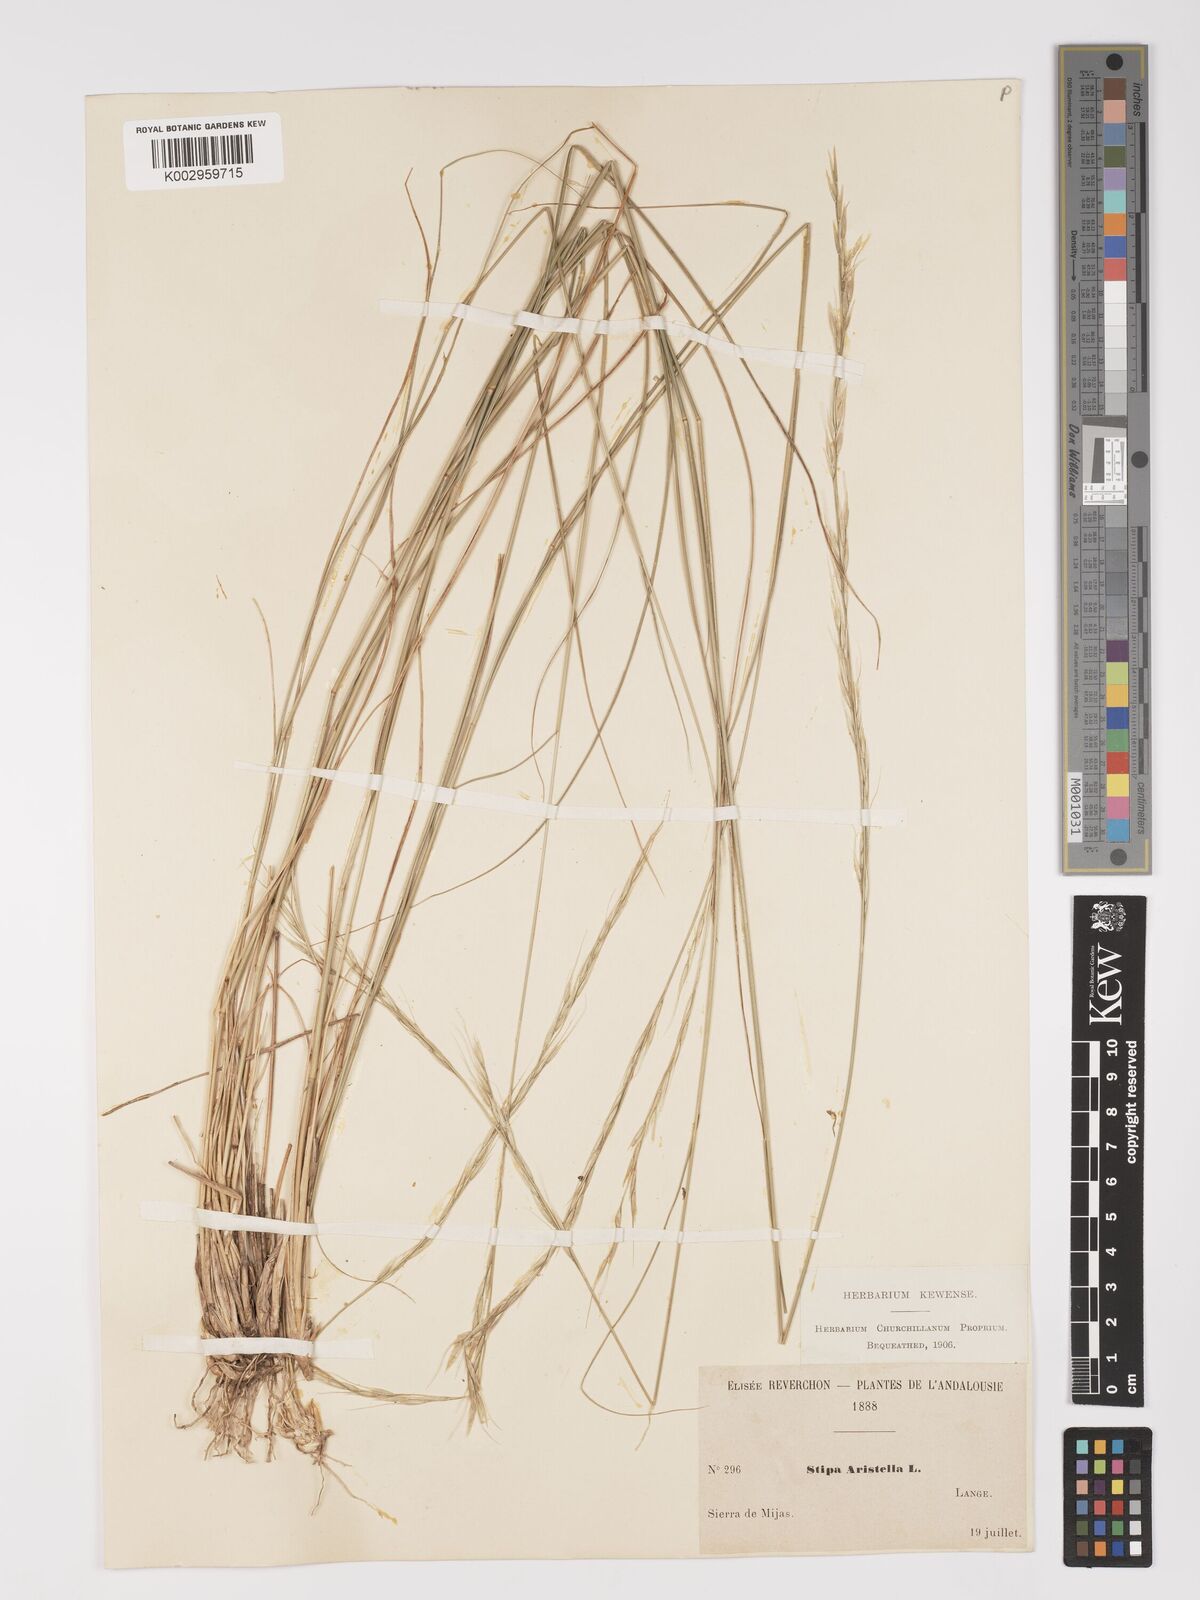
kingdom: Plantae
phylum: Tracheophyta
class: Liliopsida
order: Poales
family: Poaceae
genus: Achnatherum
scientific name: Achnatherum bromoides
